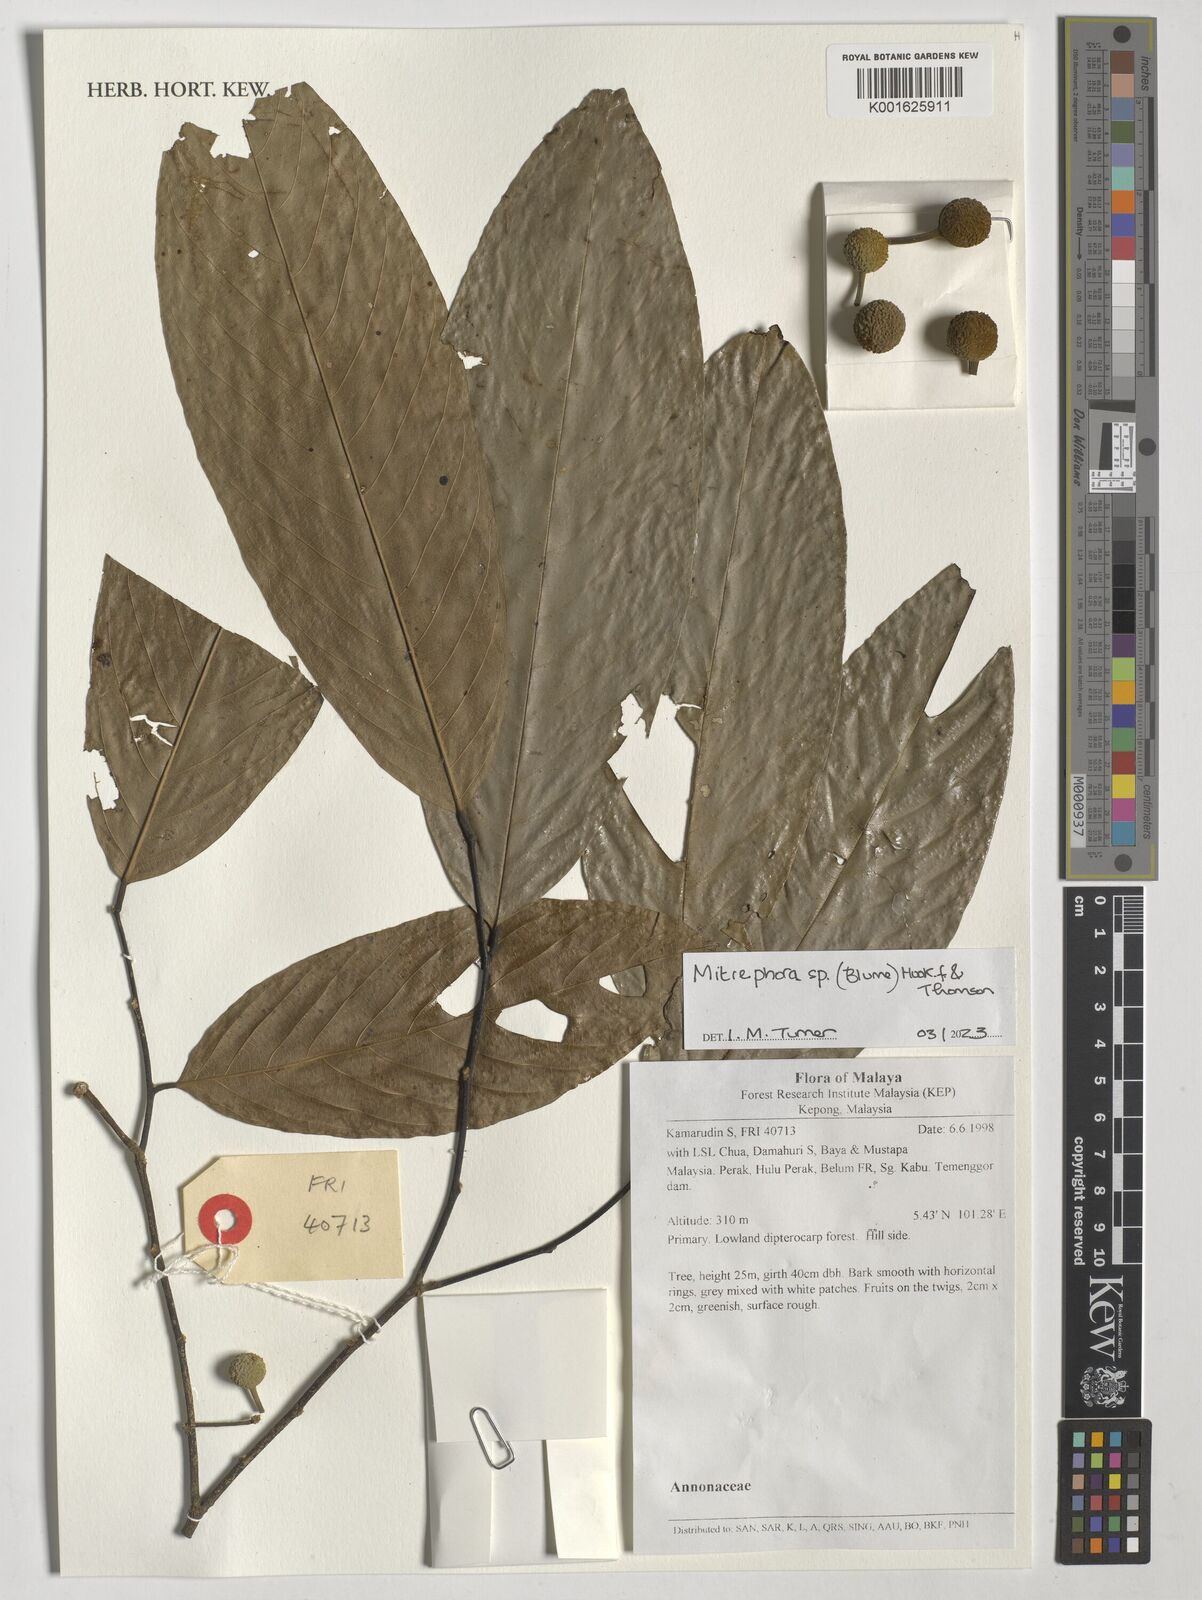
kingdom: Plantae
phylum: Tracheophyta
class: Magnoliopsida
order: Magnoliales
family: Annonaceae
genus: Mitrephora
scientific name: Mitrephora
